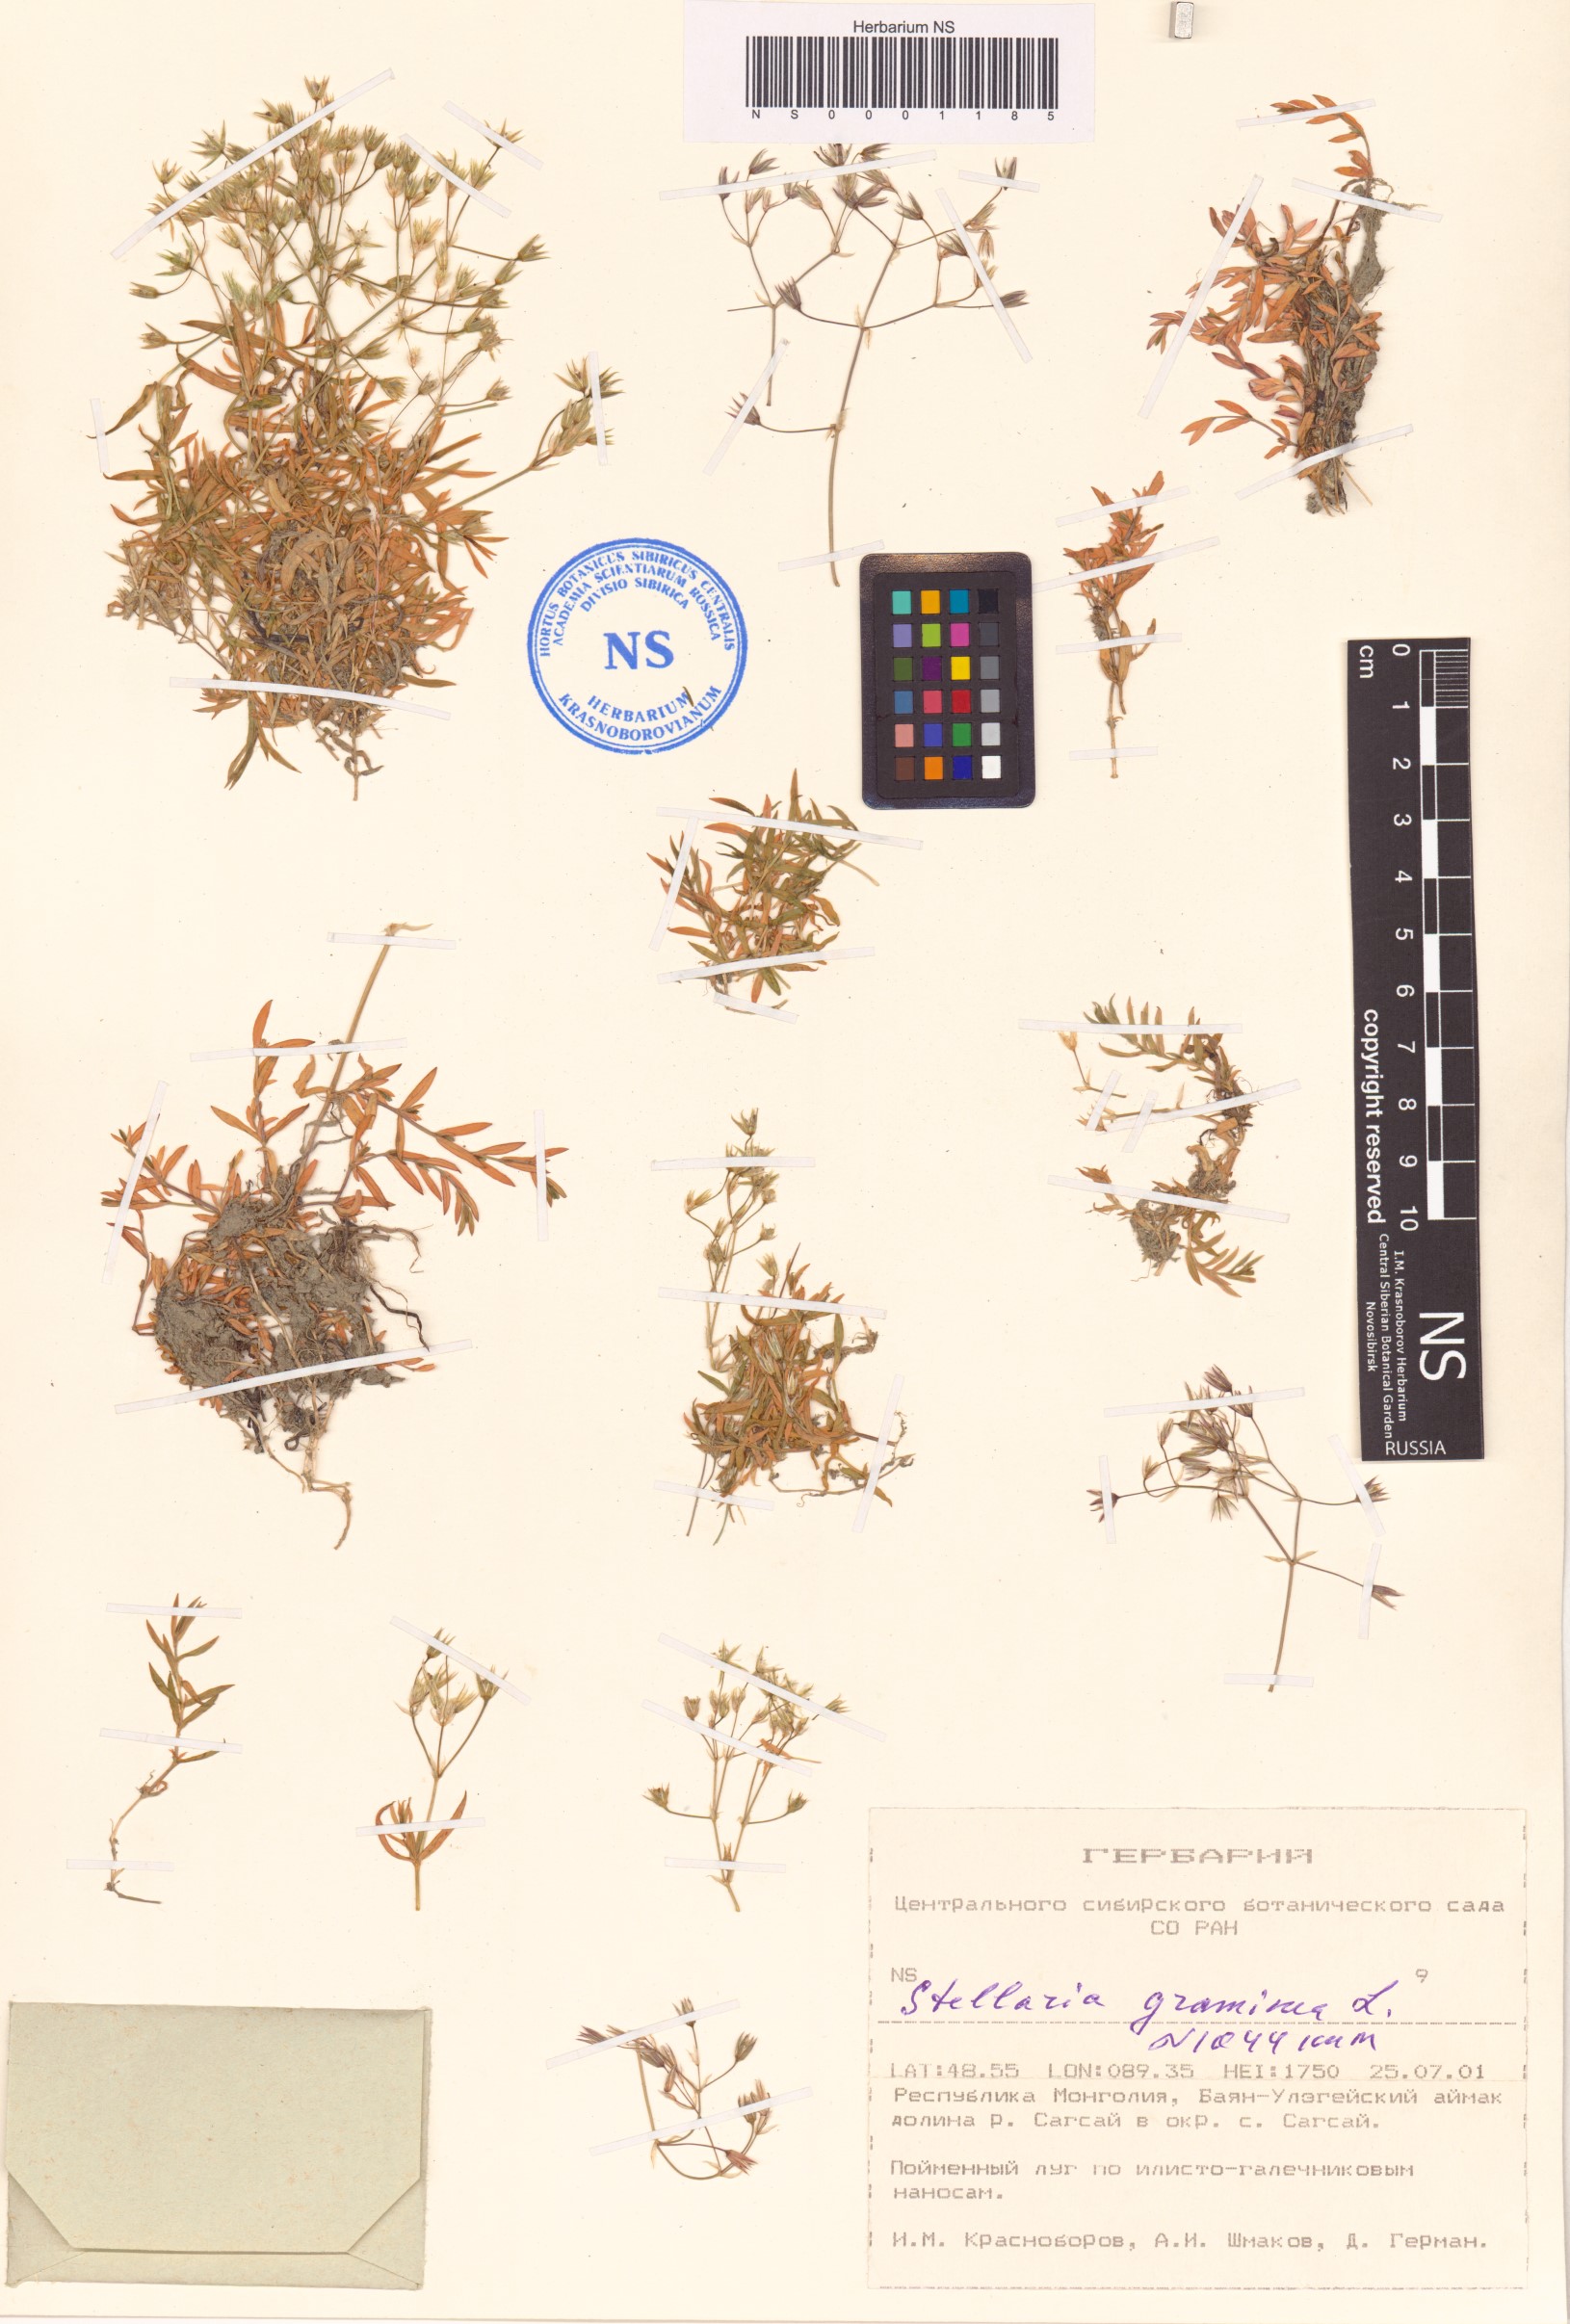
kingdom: Plantae
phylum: Tracheophyta
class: Magnoliopsida
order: Caryophyllales
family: Caryophyllaceae
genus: Stellaria
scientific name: Stellaria graminea
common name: Grass-like starwort
